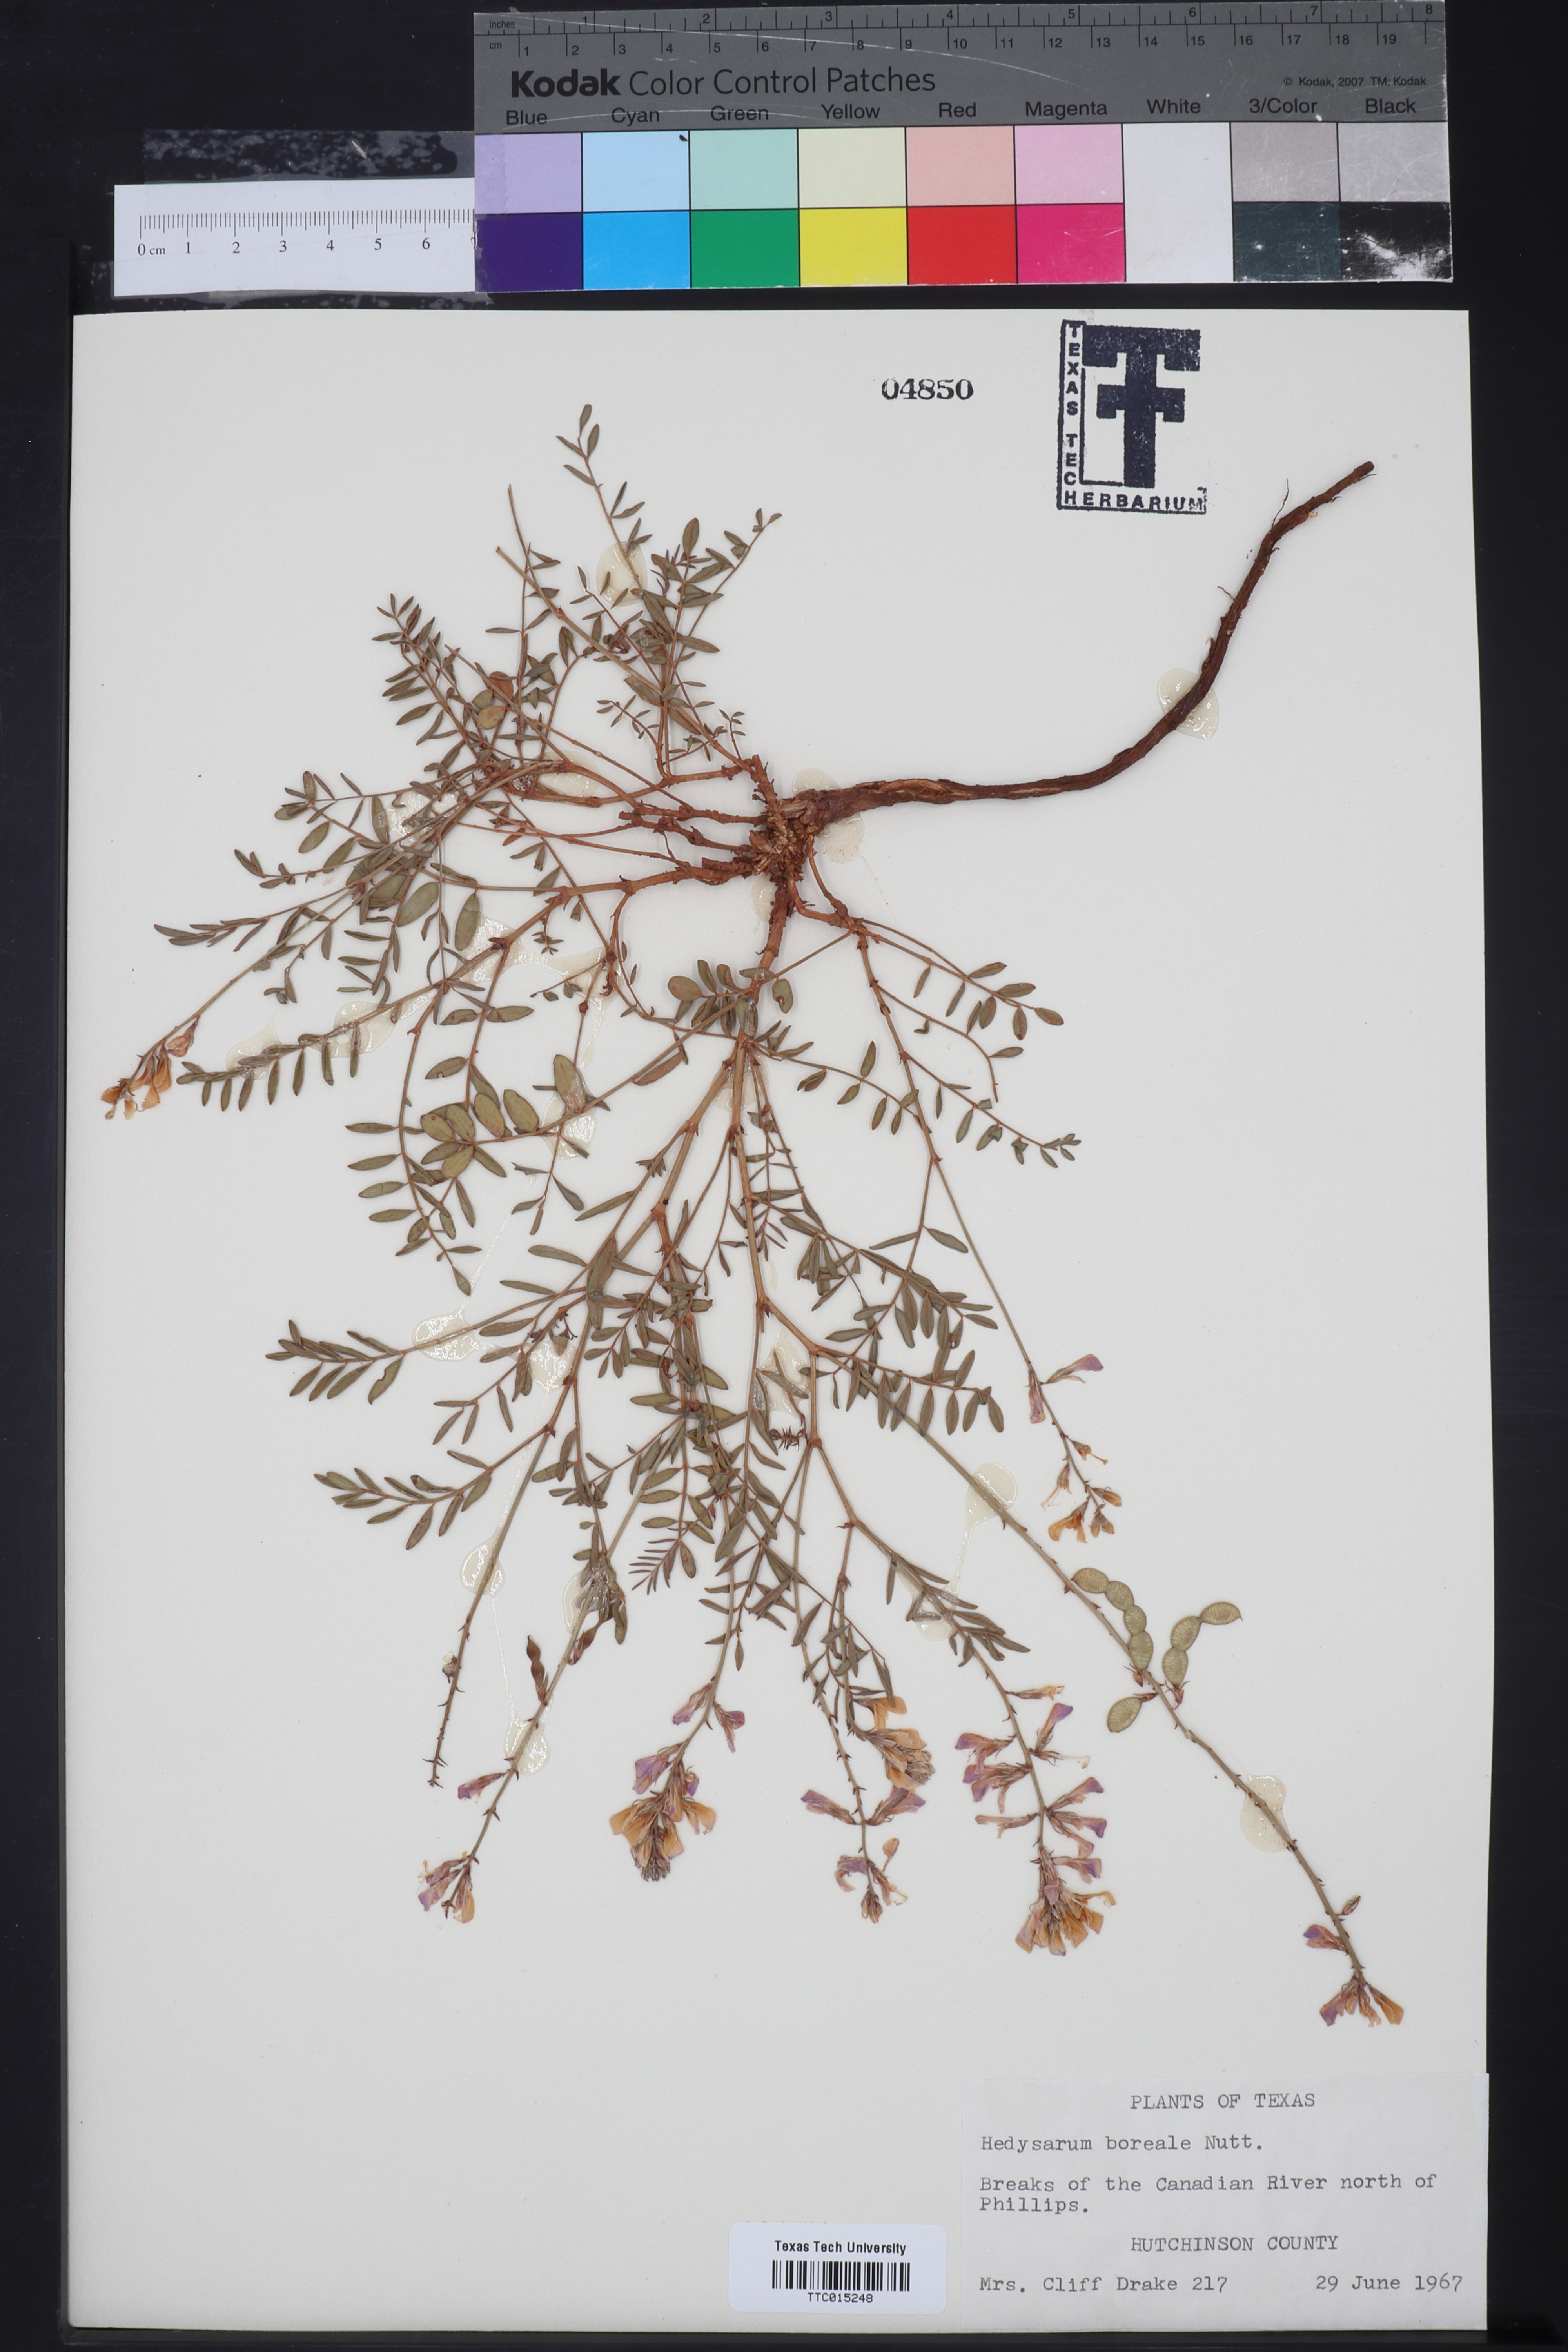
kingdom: Plantae
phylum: Tracheophyta
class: Magnoliopsida
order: Fabales
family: Fabaceae
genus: Hedysarum
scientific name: Hedysarum boreale
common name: Northern sweet-vetch
